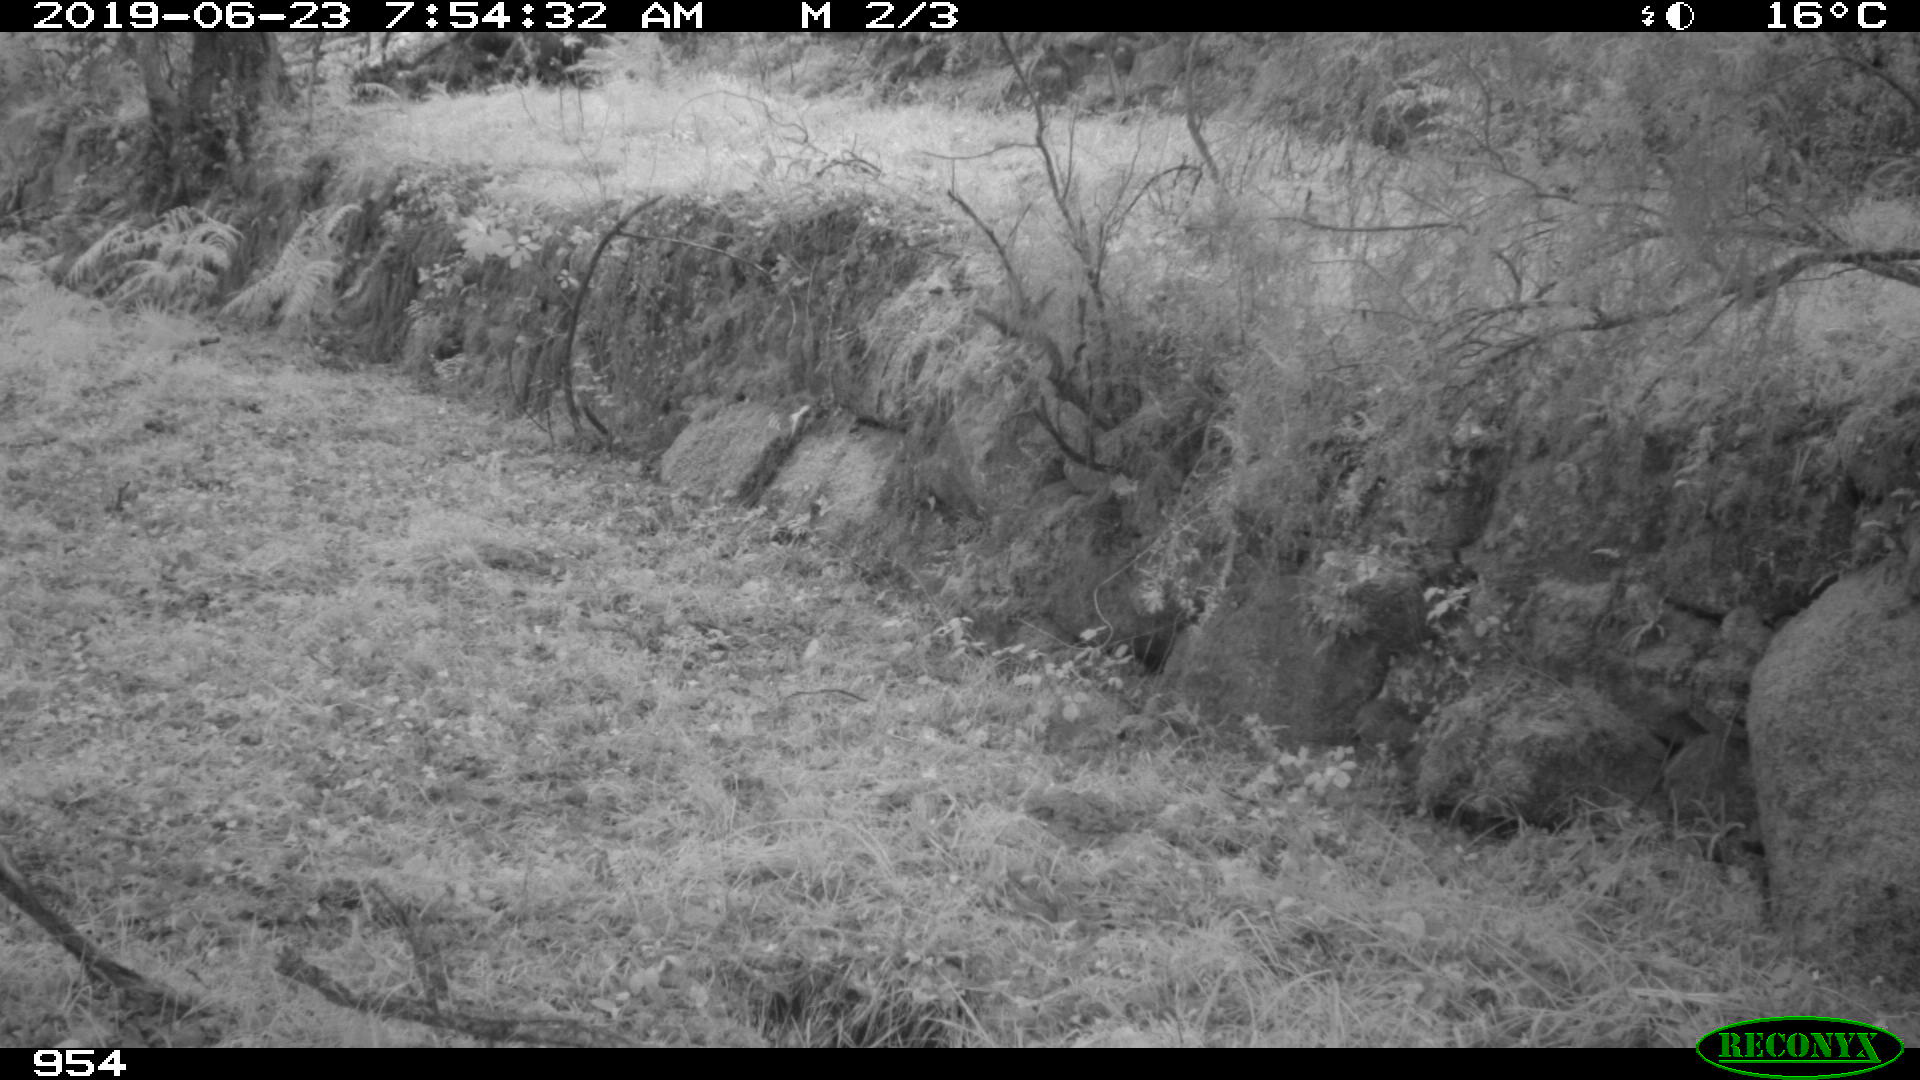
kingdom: Animalia
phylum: Chordata
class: Mammalia
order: Artiodactyla
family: Bovidae
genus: Bos
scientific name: Bos taurus
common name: Domesticated cattle
